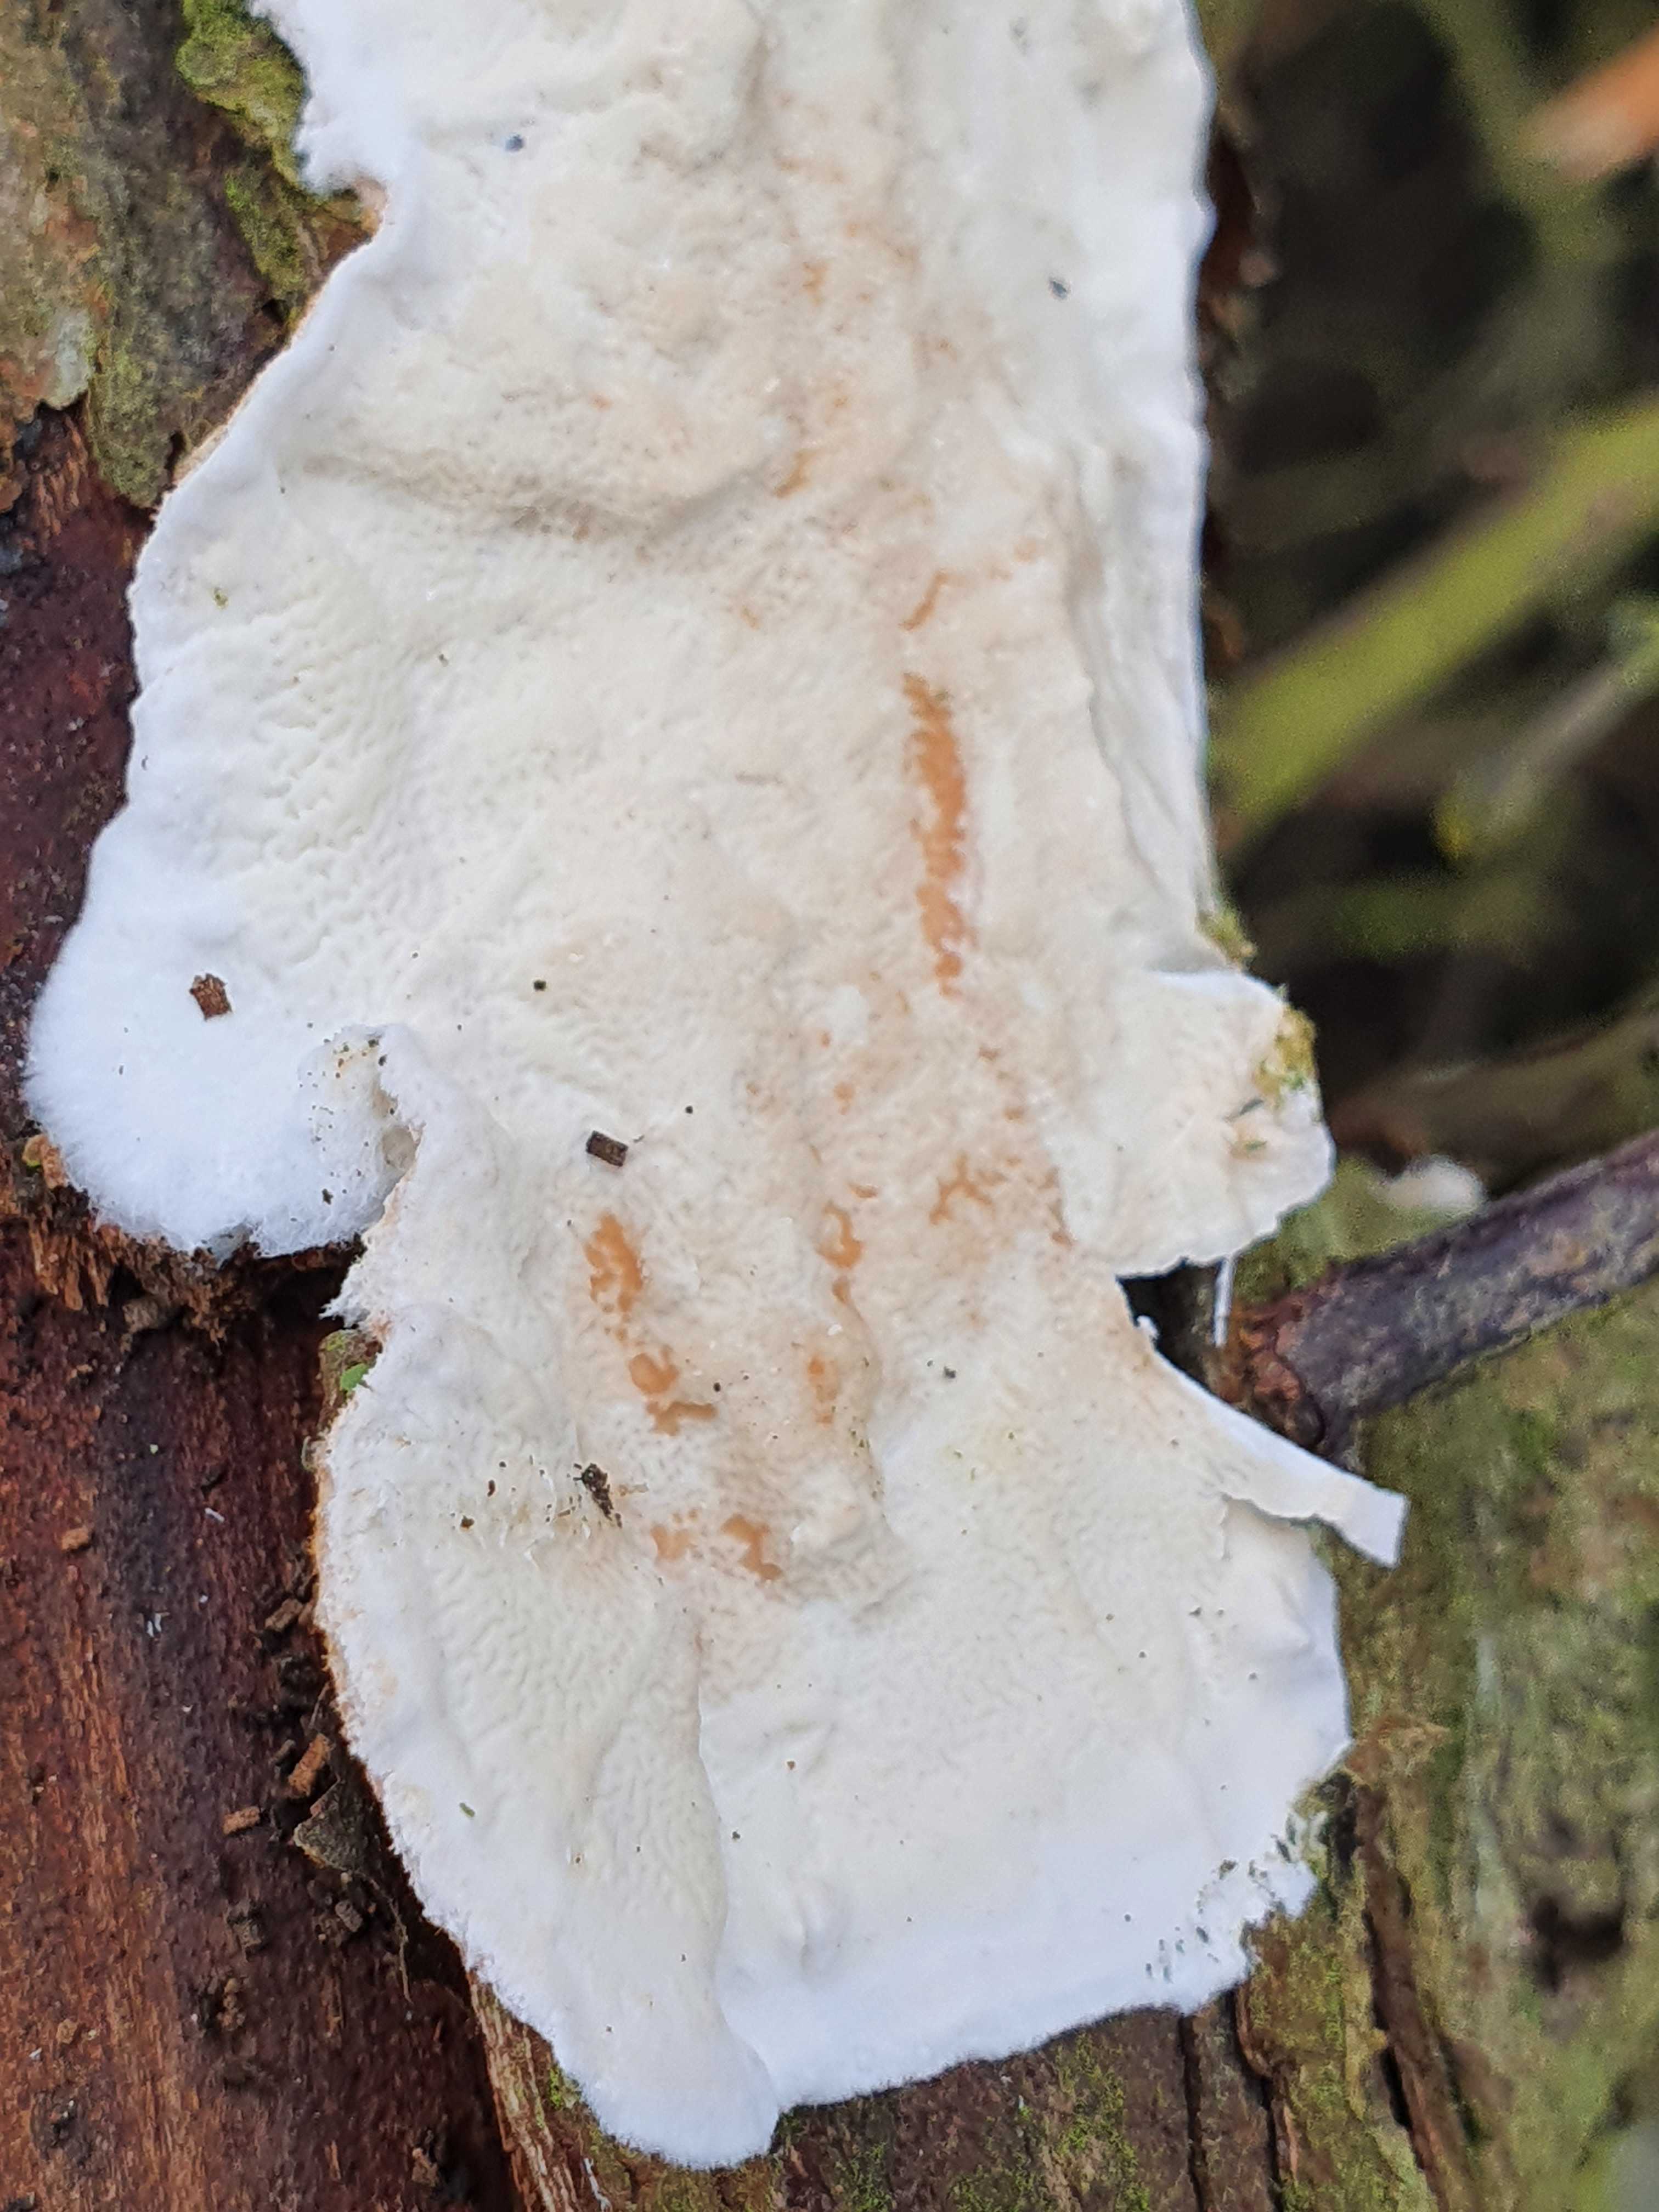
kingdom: Fungi
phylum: Basidiomycota
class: Agaricomycetes
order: Polyporales
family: Irpicaceae
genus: Byssomerulius
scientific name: Byssomerulius corium
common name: læder-åresvamp
